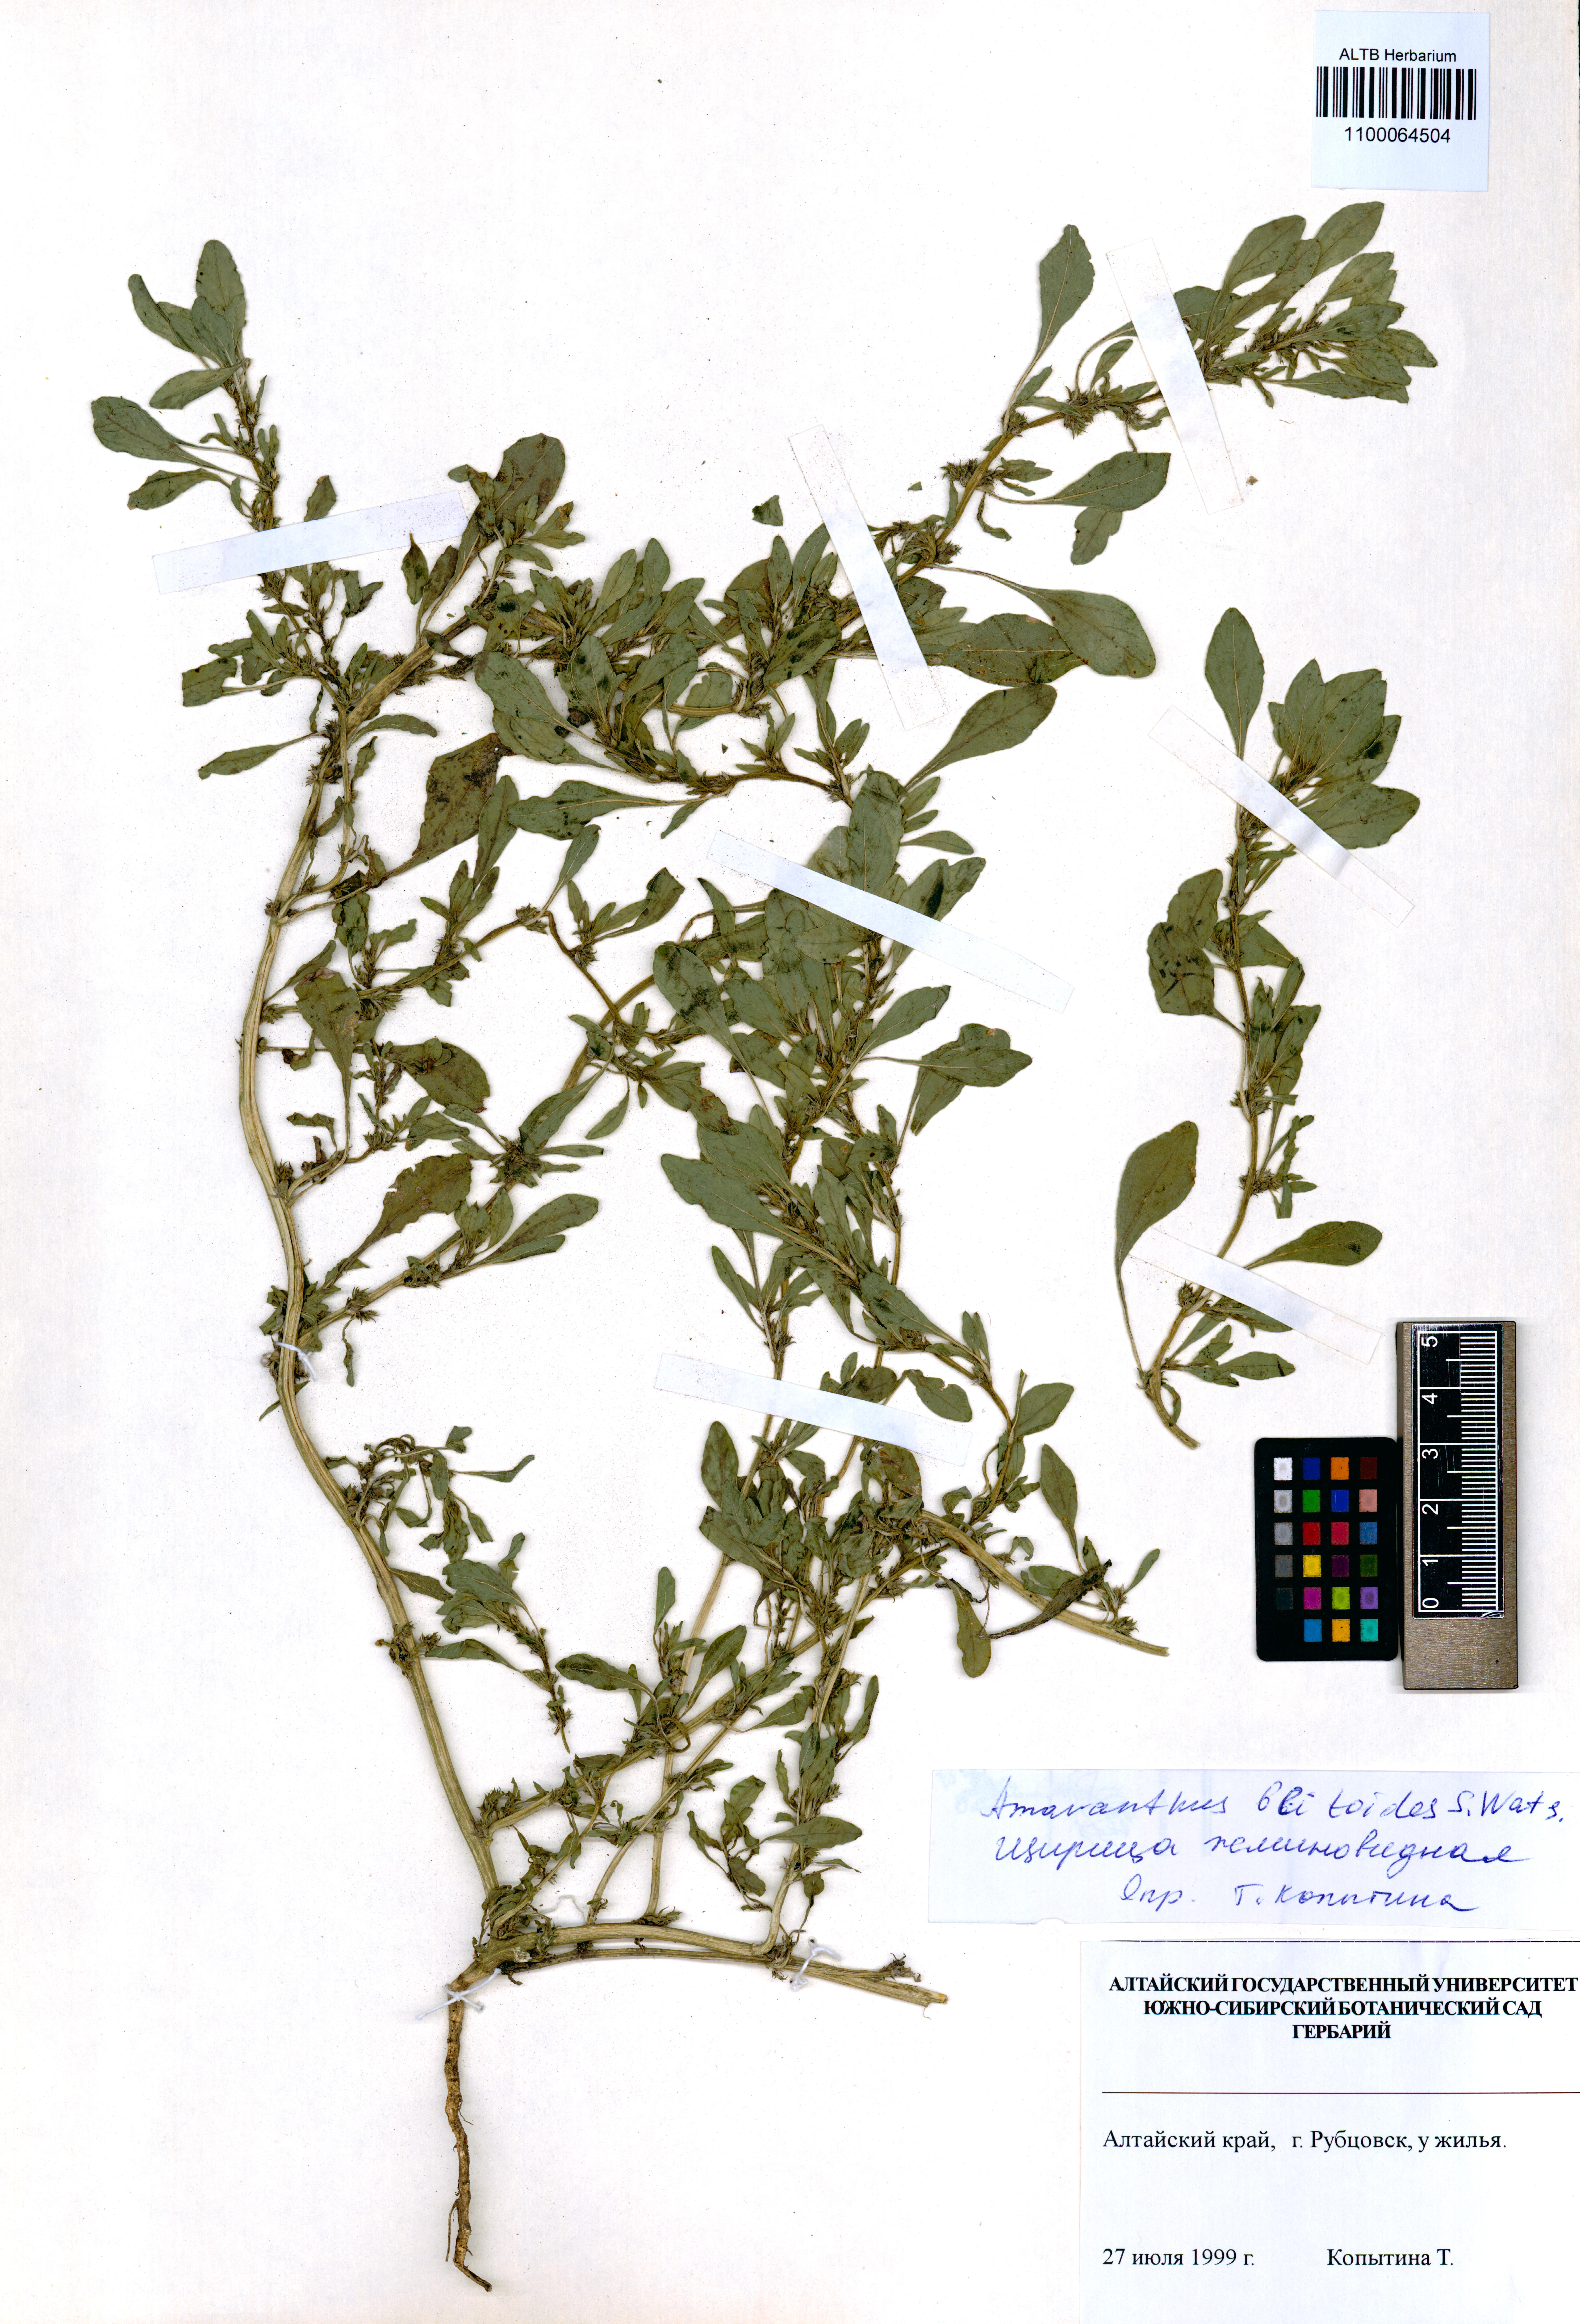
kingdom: Plantae
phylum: Tracheophyta
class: Magnoliopsida
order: Caryophyllales
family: Amaranthaceae
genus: Amaranthus
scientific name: Amaranthus blitoides
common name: Prostrate pigweed
